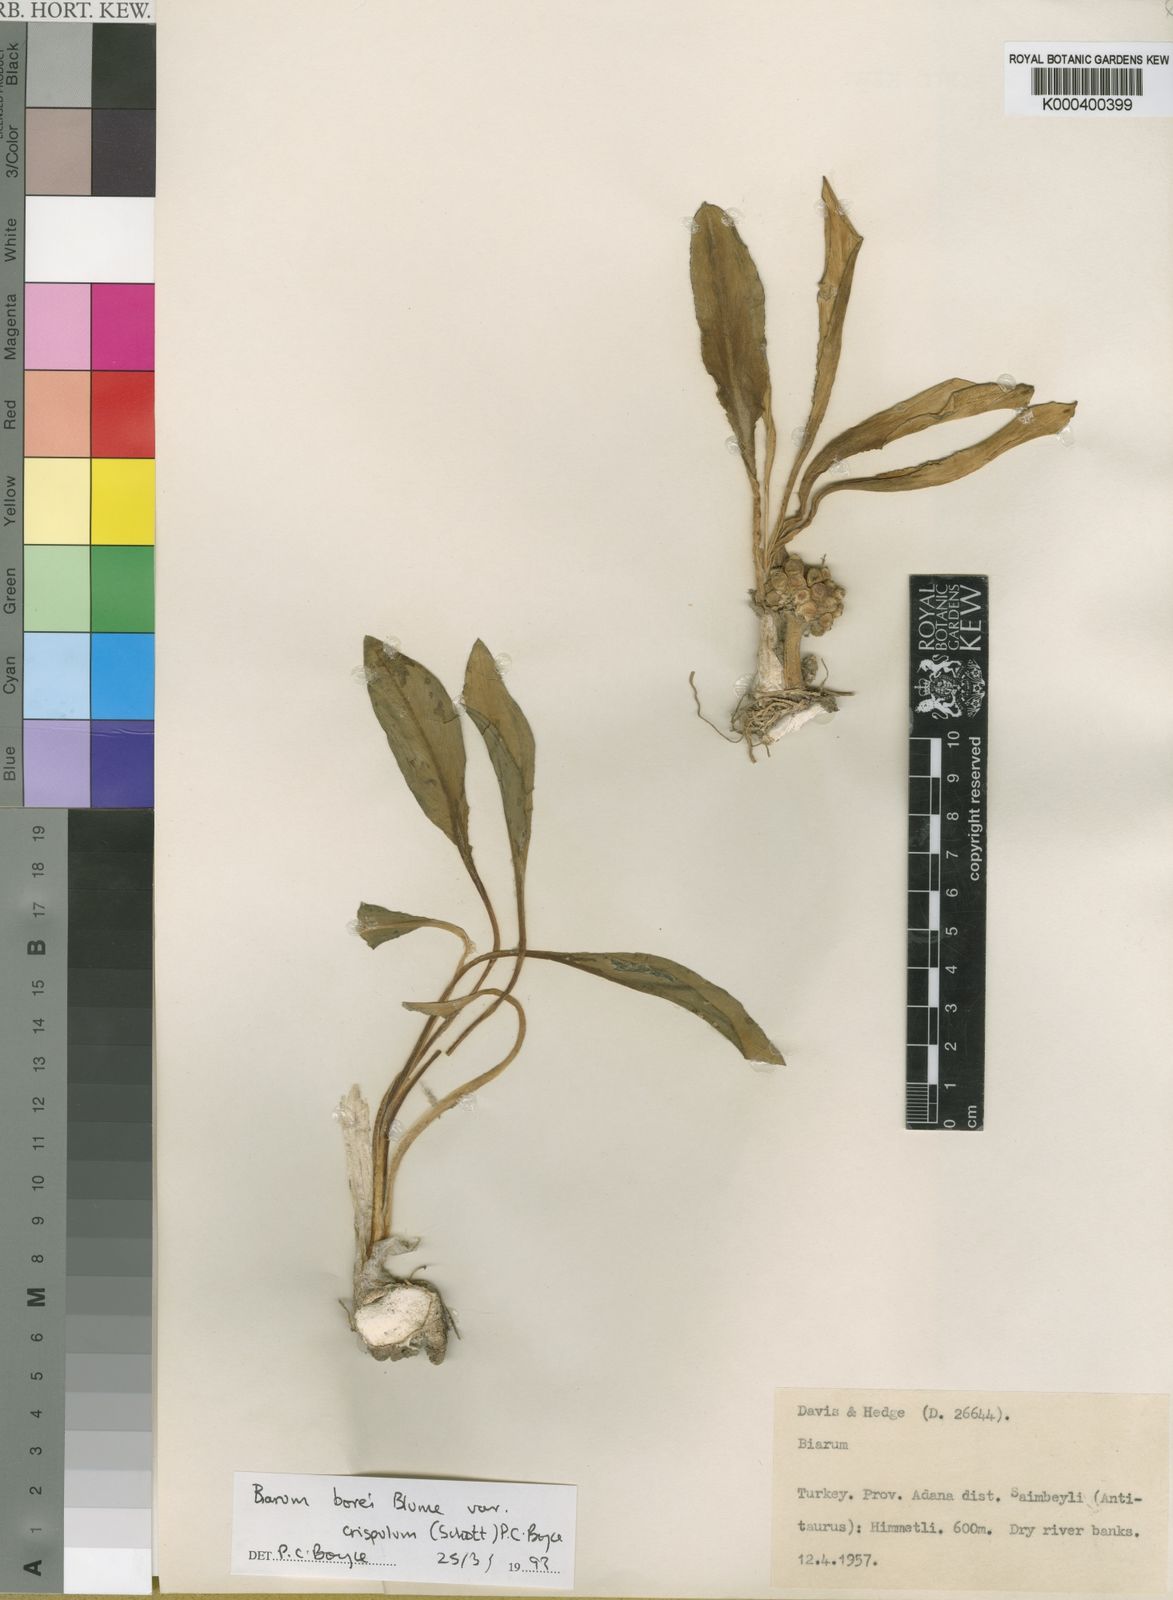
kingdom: Plantae
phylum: Tracheophyta
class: Liliopsida
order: Alismatales
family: Araceae
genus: Biarum
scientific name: Biarum bovei
